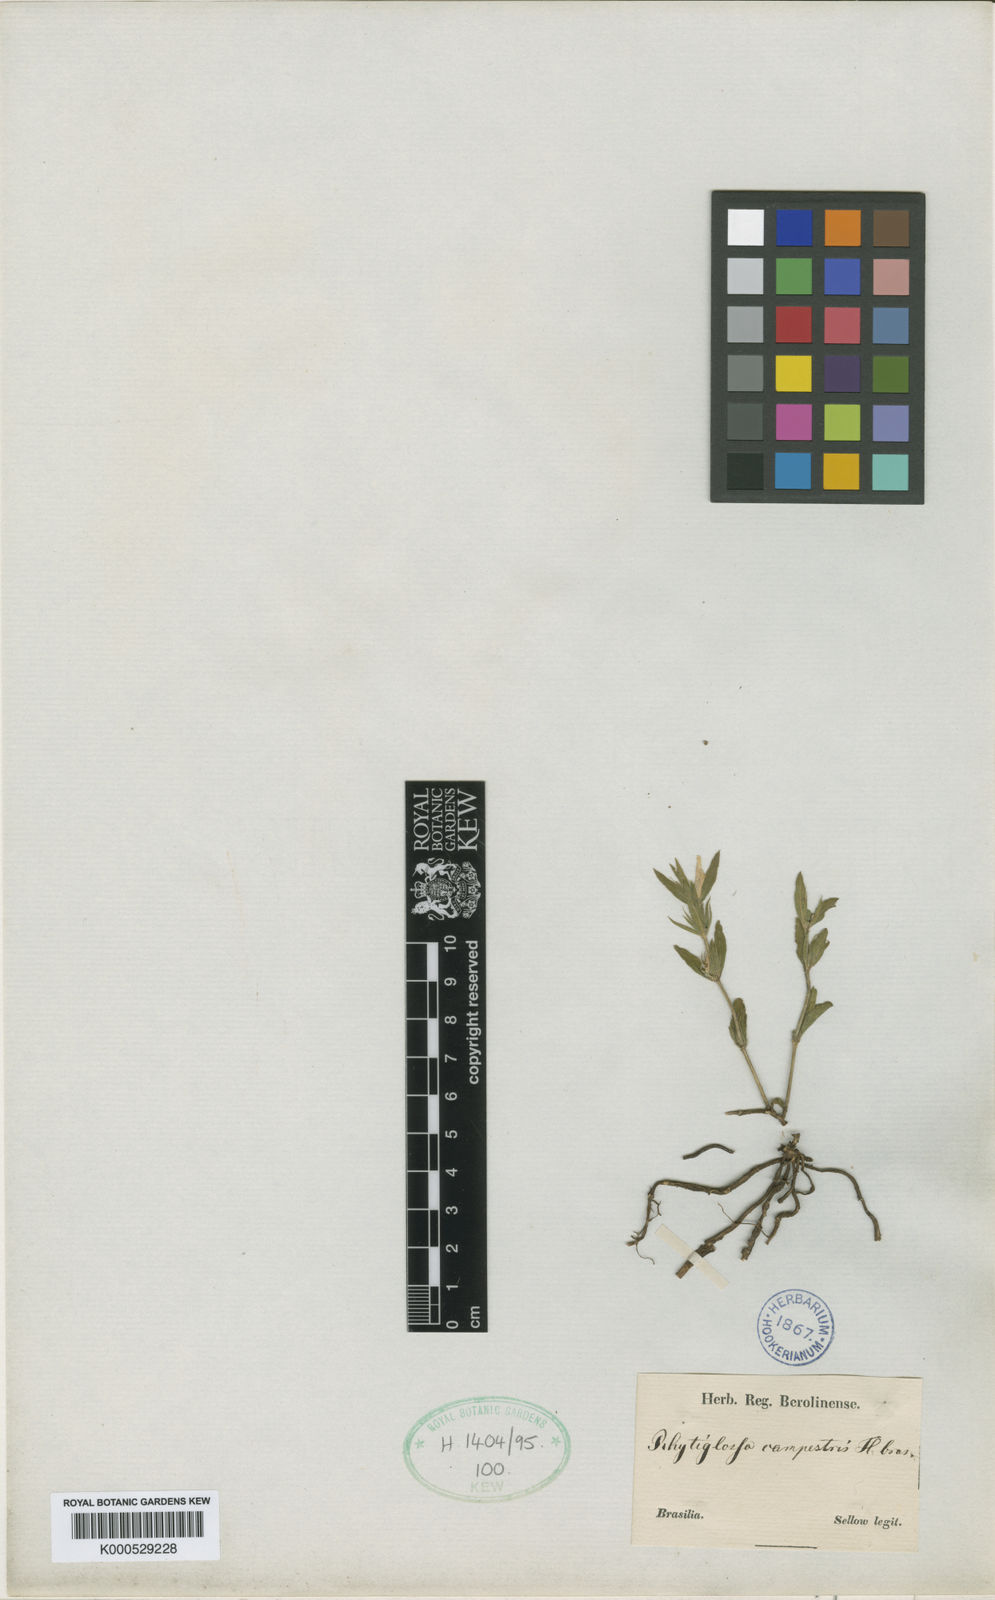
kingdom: Plantae
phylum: Tracheophyta
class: Magnoliopsida
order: Lamiales
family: Acanthaceae
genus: Justicia
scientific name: Justicia axillaris
